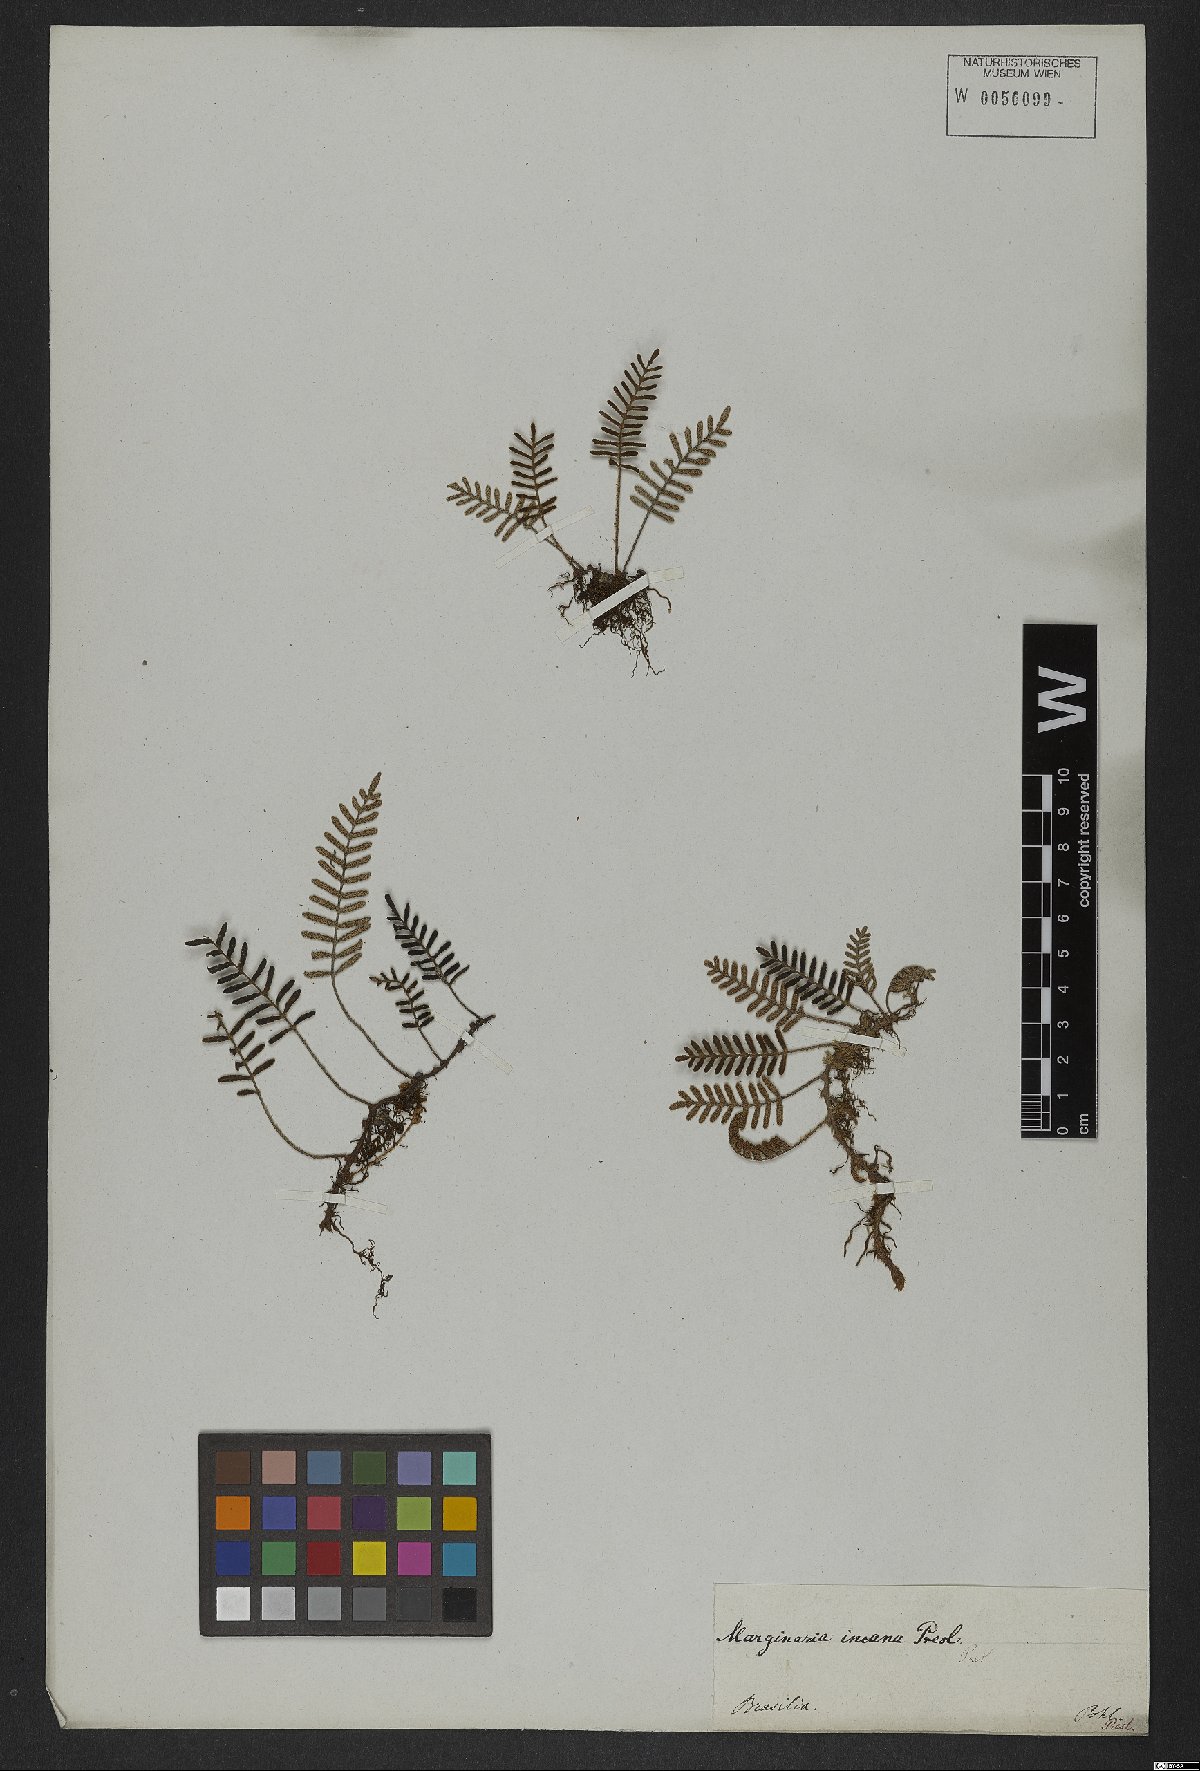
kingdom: Plantae
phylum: Tracheophyta
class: Polypodiopsida
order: Polypodiales
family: Polypodiaceae
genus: Pleopeltis
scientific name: Pleopeltis polypodioides
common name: Resurrection fern
